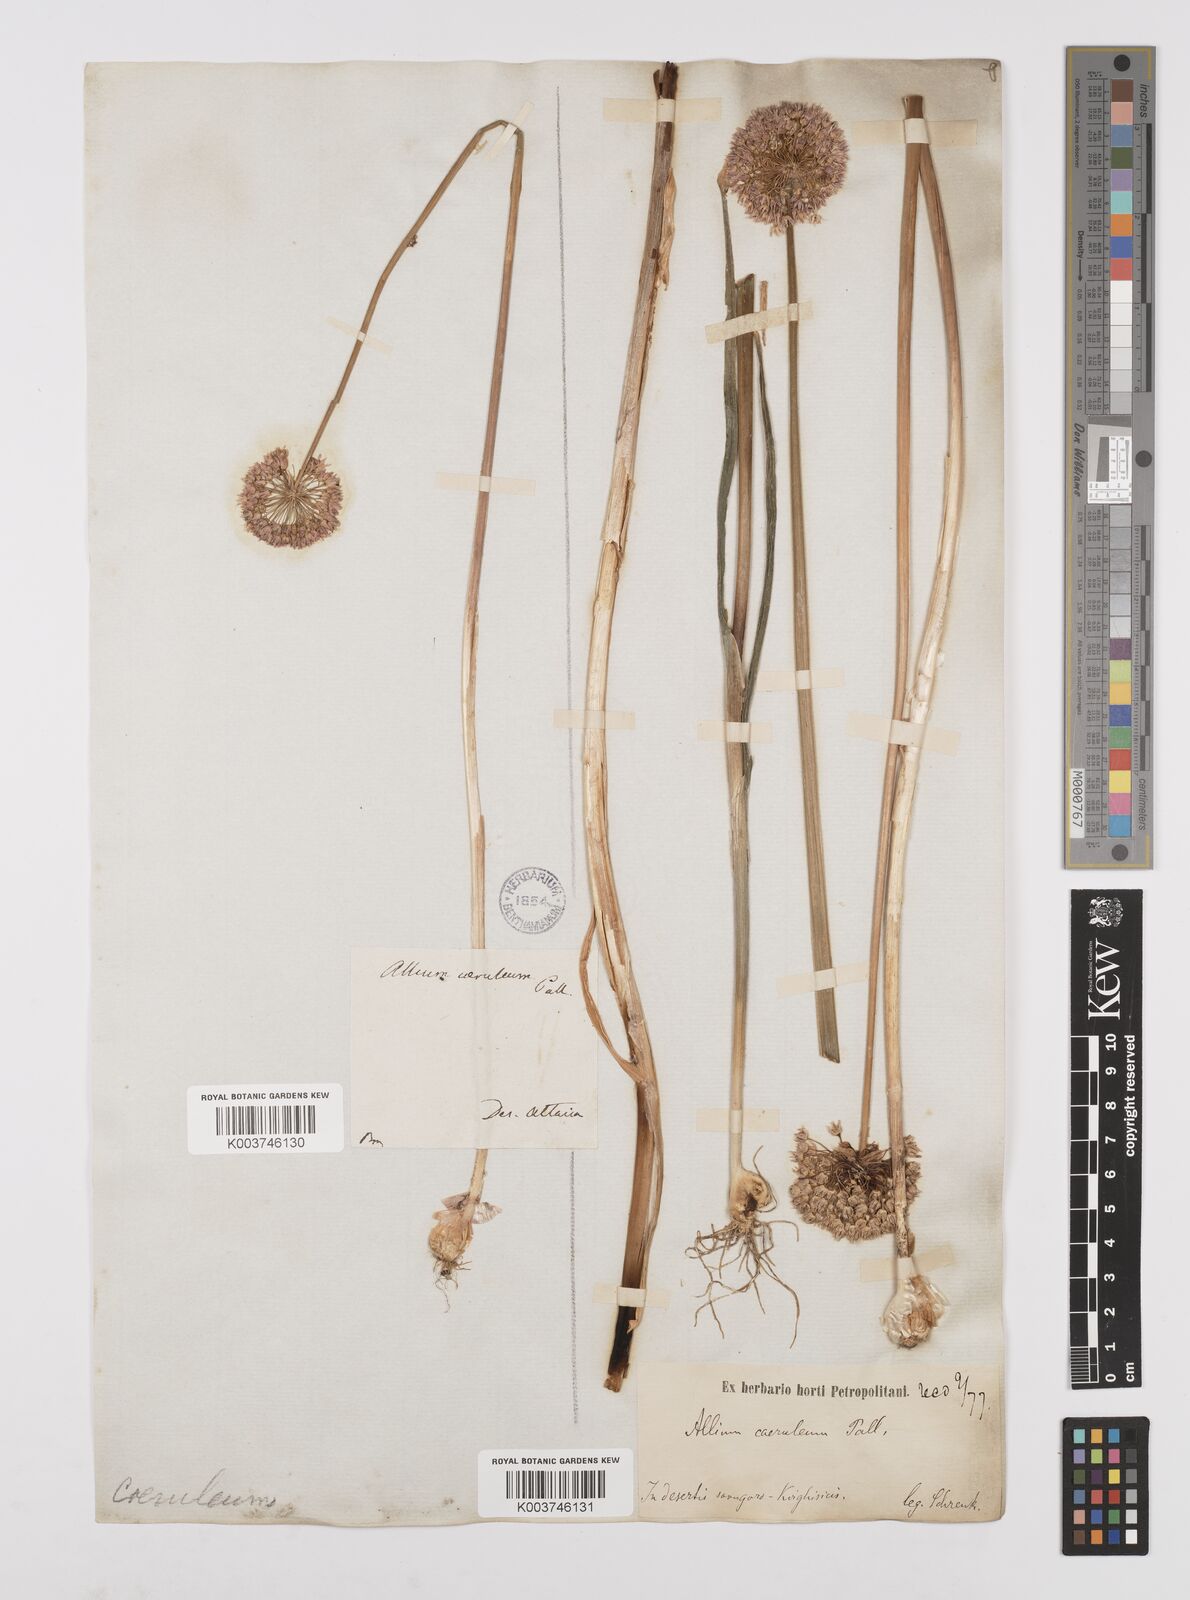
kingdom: Plantae
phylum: Tracheophyta
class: Liliopsida
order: Asparagales
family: Amaryllidaceae
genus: Allium
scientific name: Allium caeruleum
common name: Blue-of-the-heavens
